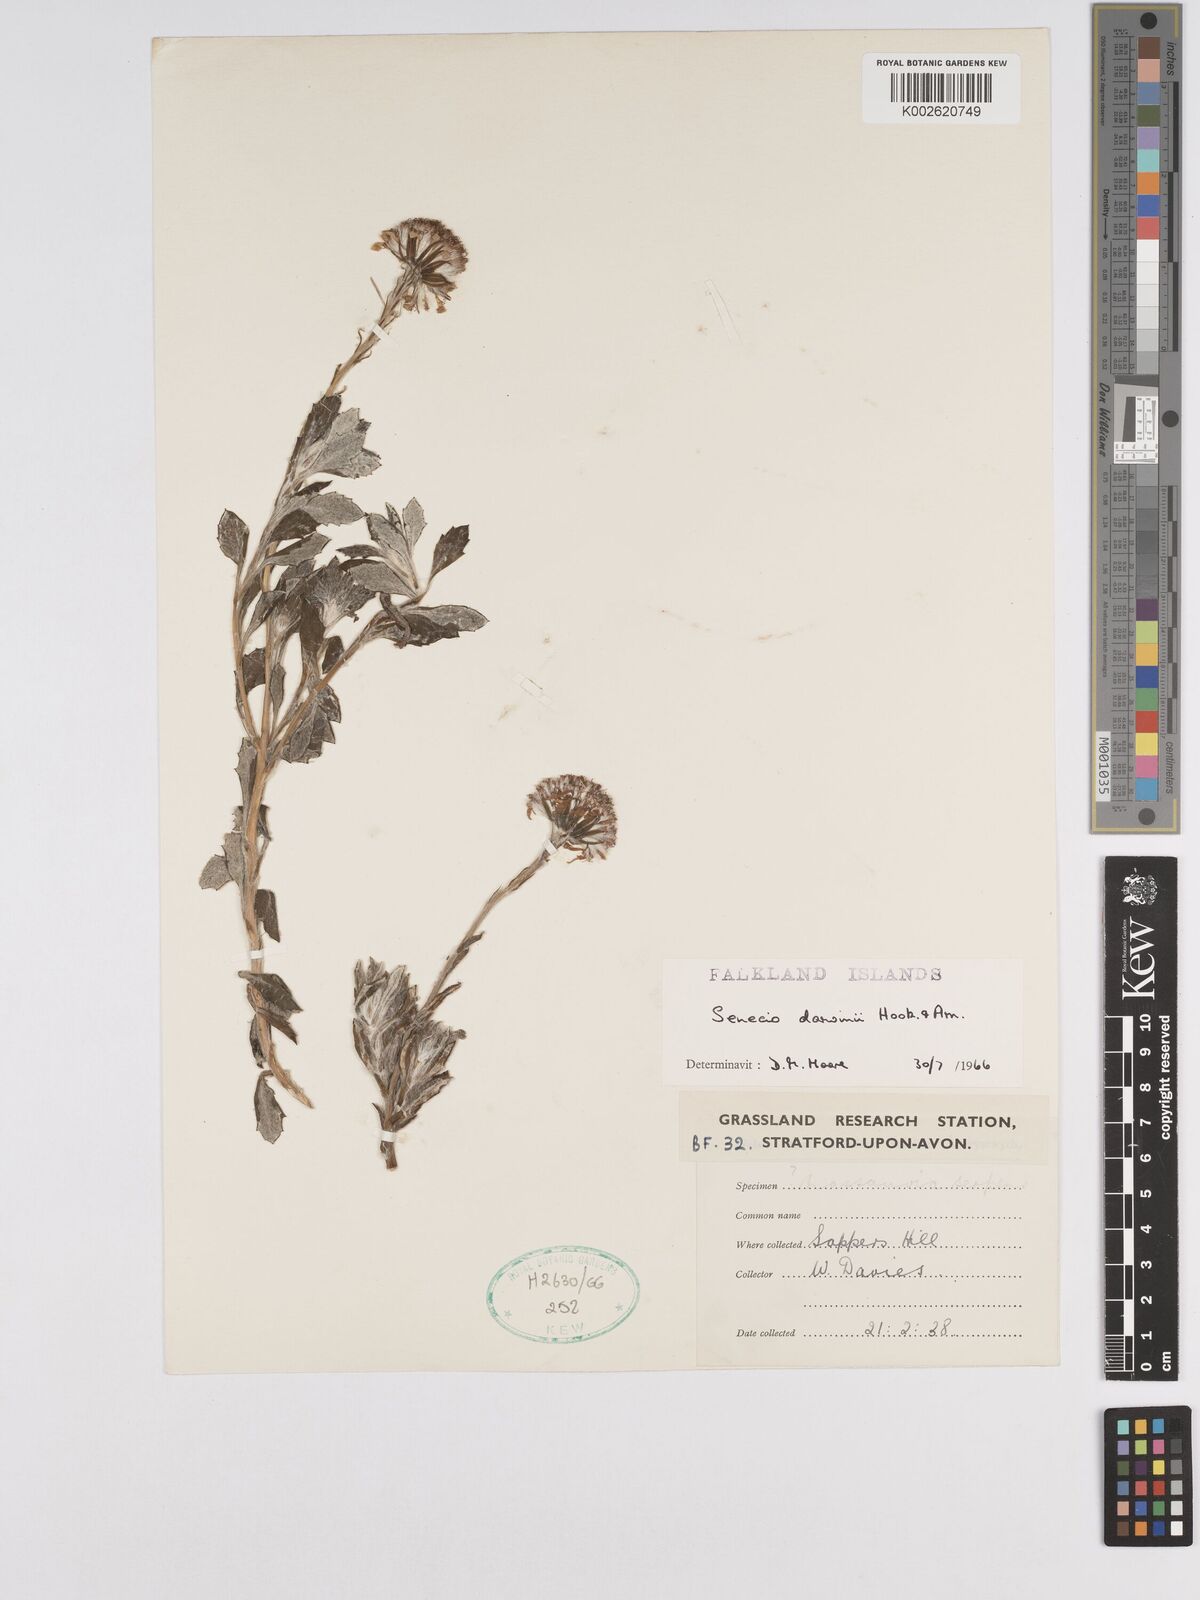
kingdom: Plantae
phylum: Tracheophyta
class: Magnoliopsida
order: Asterales
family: Asteraceae
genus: Senecio
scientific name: Senecio darwinii
